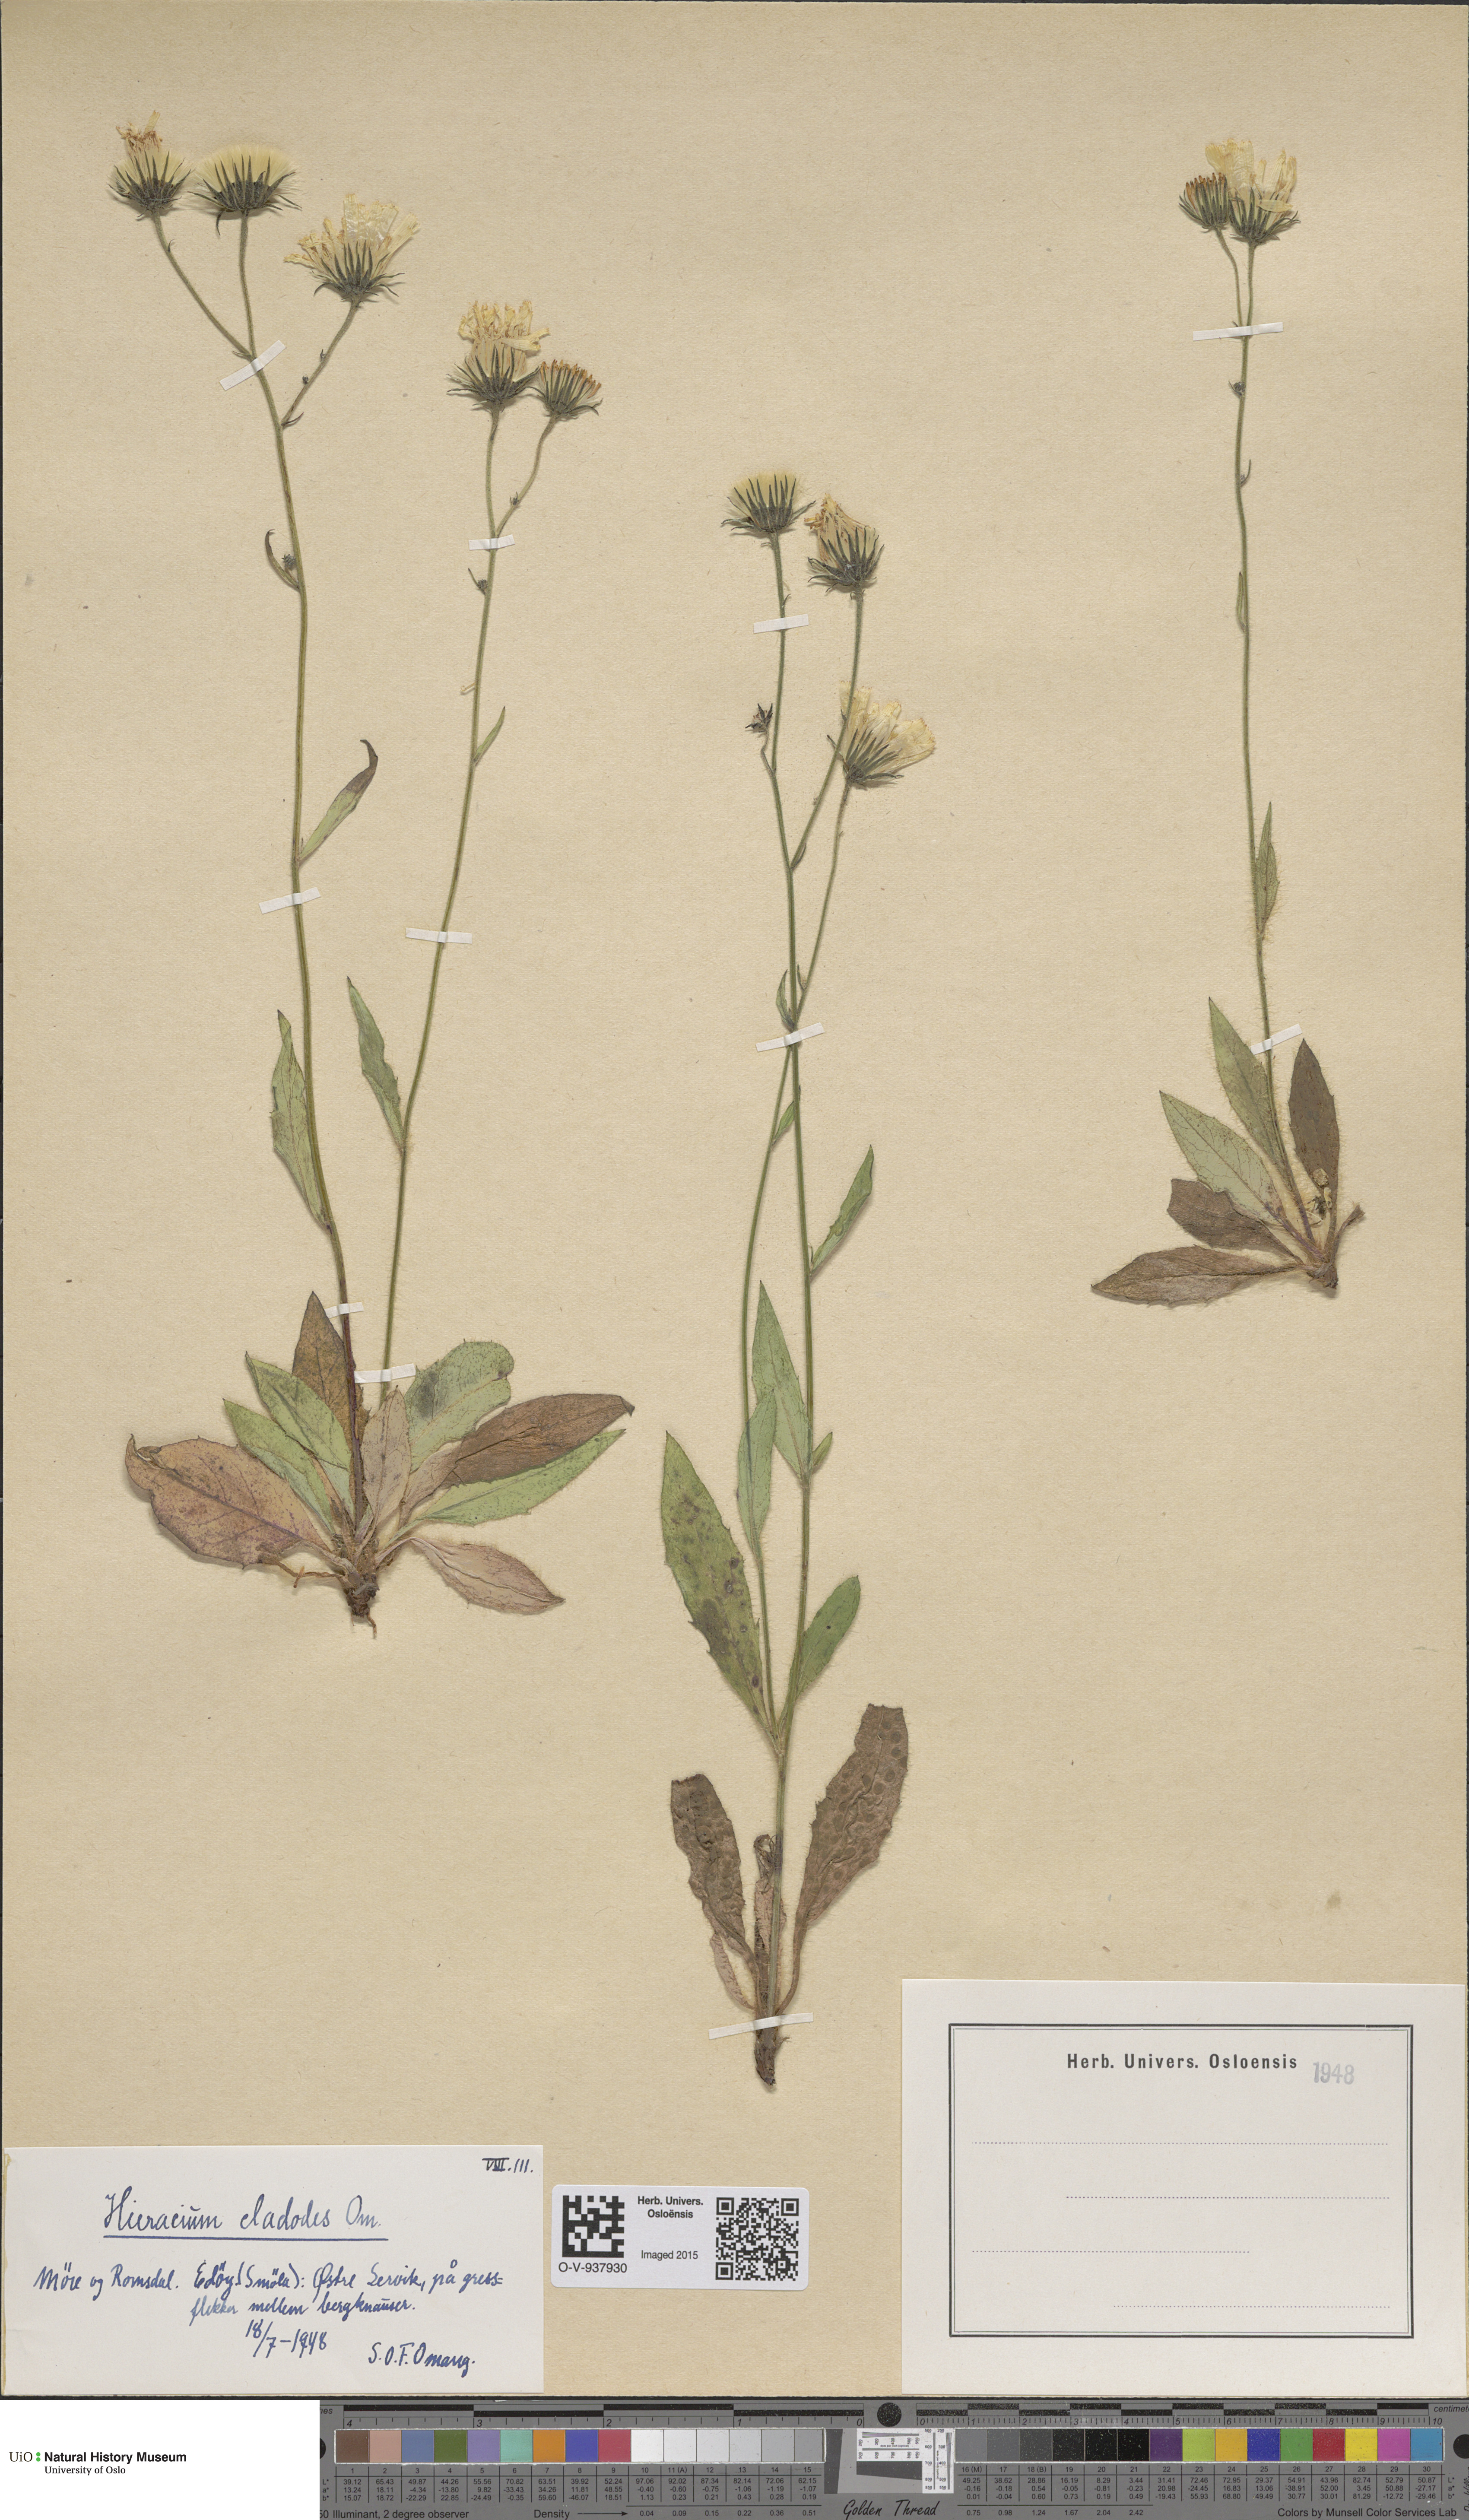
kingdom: Plantae
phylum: Tracheophyta
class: Magnoliopsida
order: Asterales
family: Asteraceae
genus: Hieracium
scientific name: Hieracium
